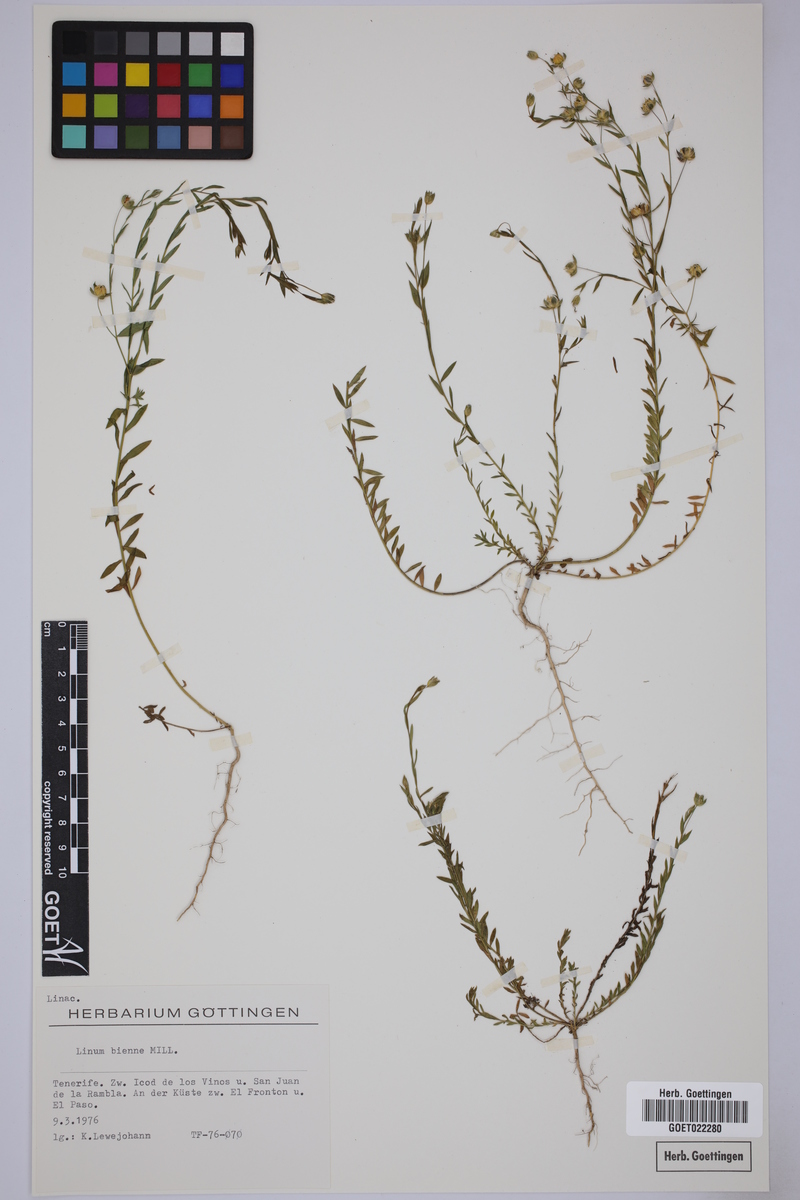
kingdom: Plantae
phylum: Tracheophyta
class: Magnoliopsida
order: Malpighiales
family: Linaceae
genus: Linum
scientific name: Linum bienne
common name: Pale flax
